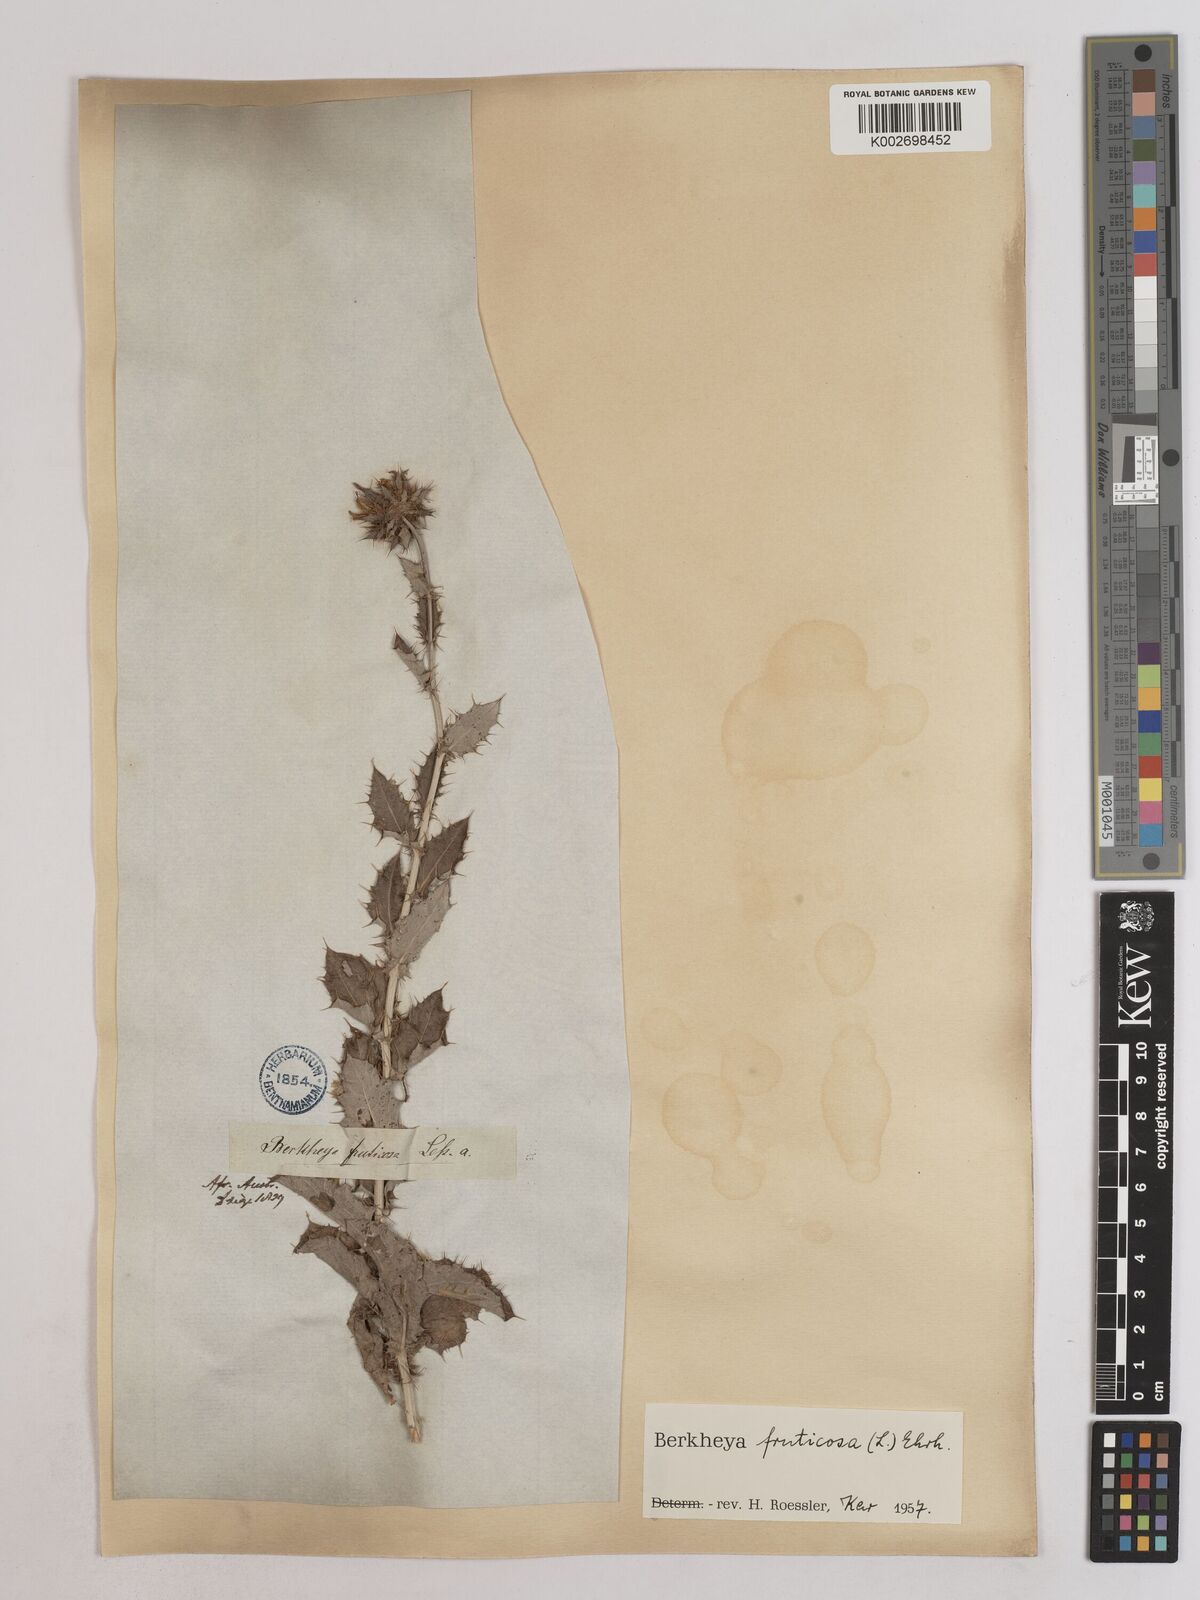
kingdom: Plantae
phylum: Tracheophyta
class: Magnoliopsida
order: Asterales
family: Asteraceae
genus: Berkheya
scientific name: Berkheya fruticosa
